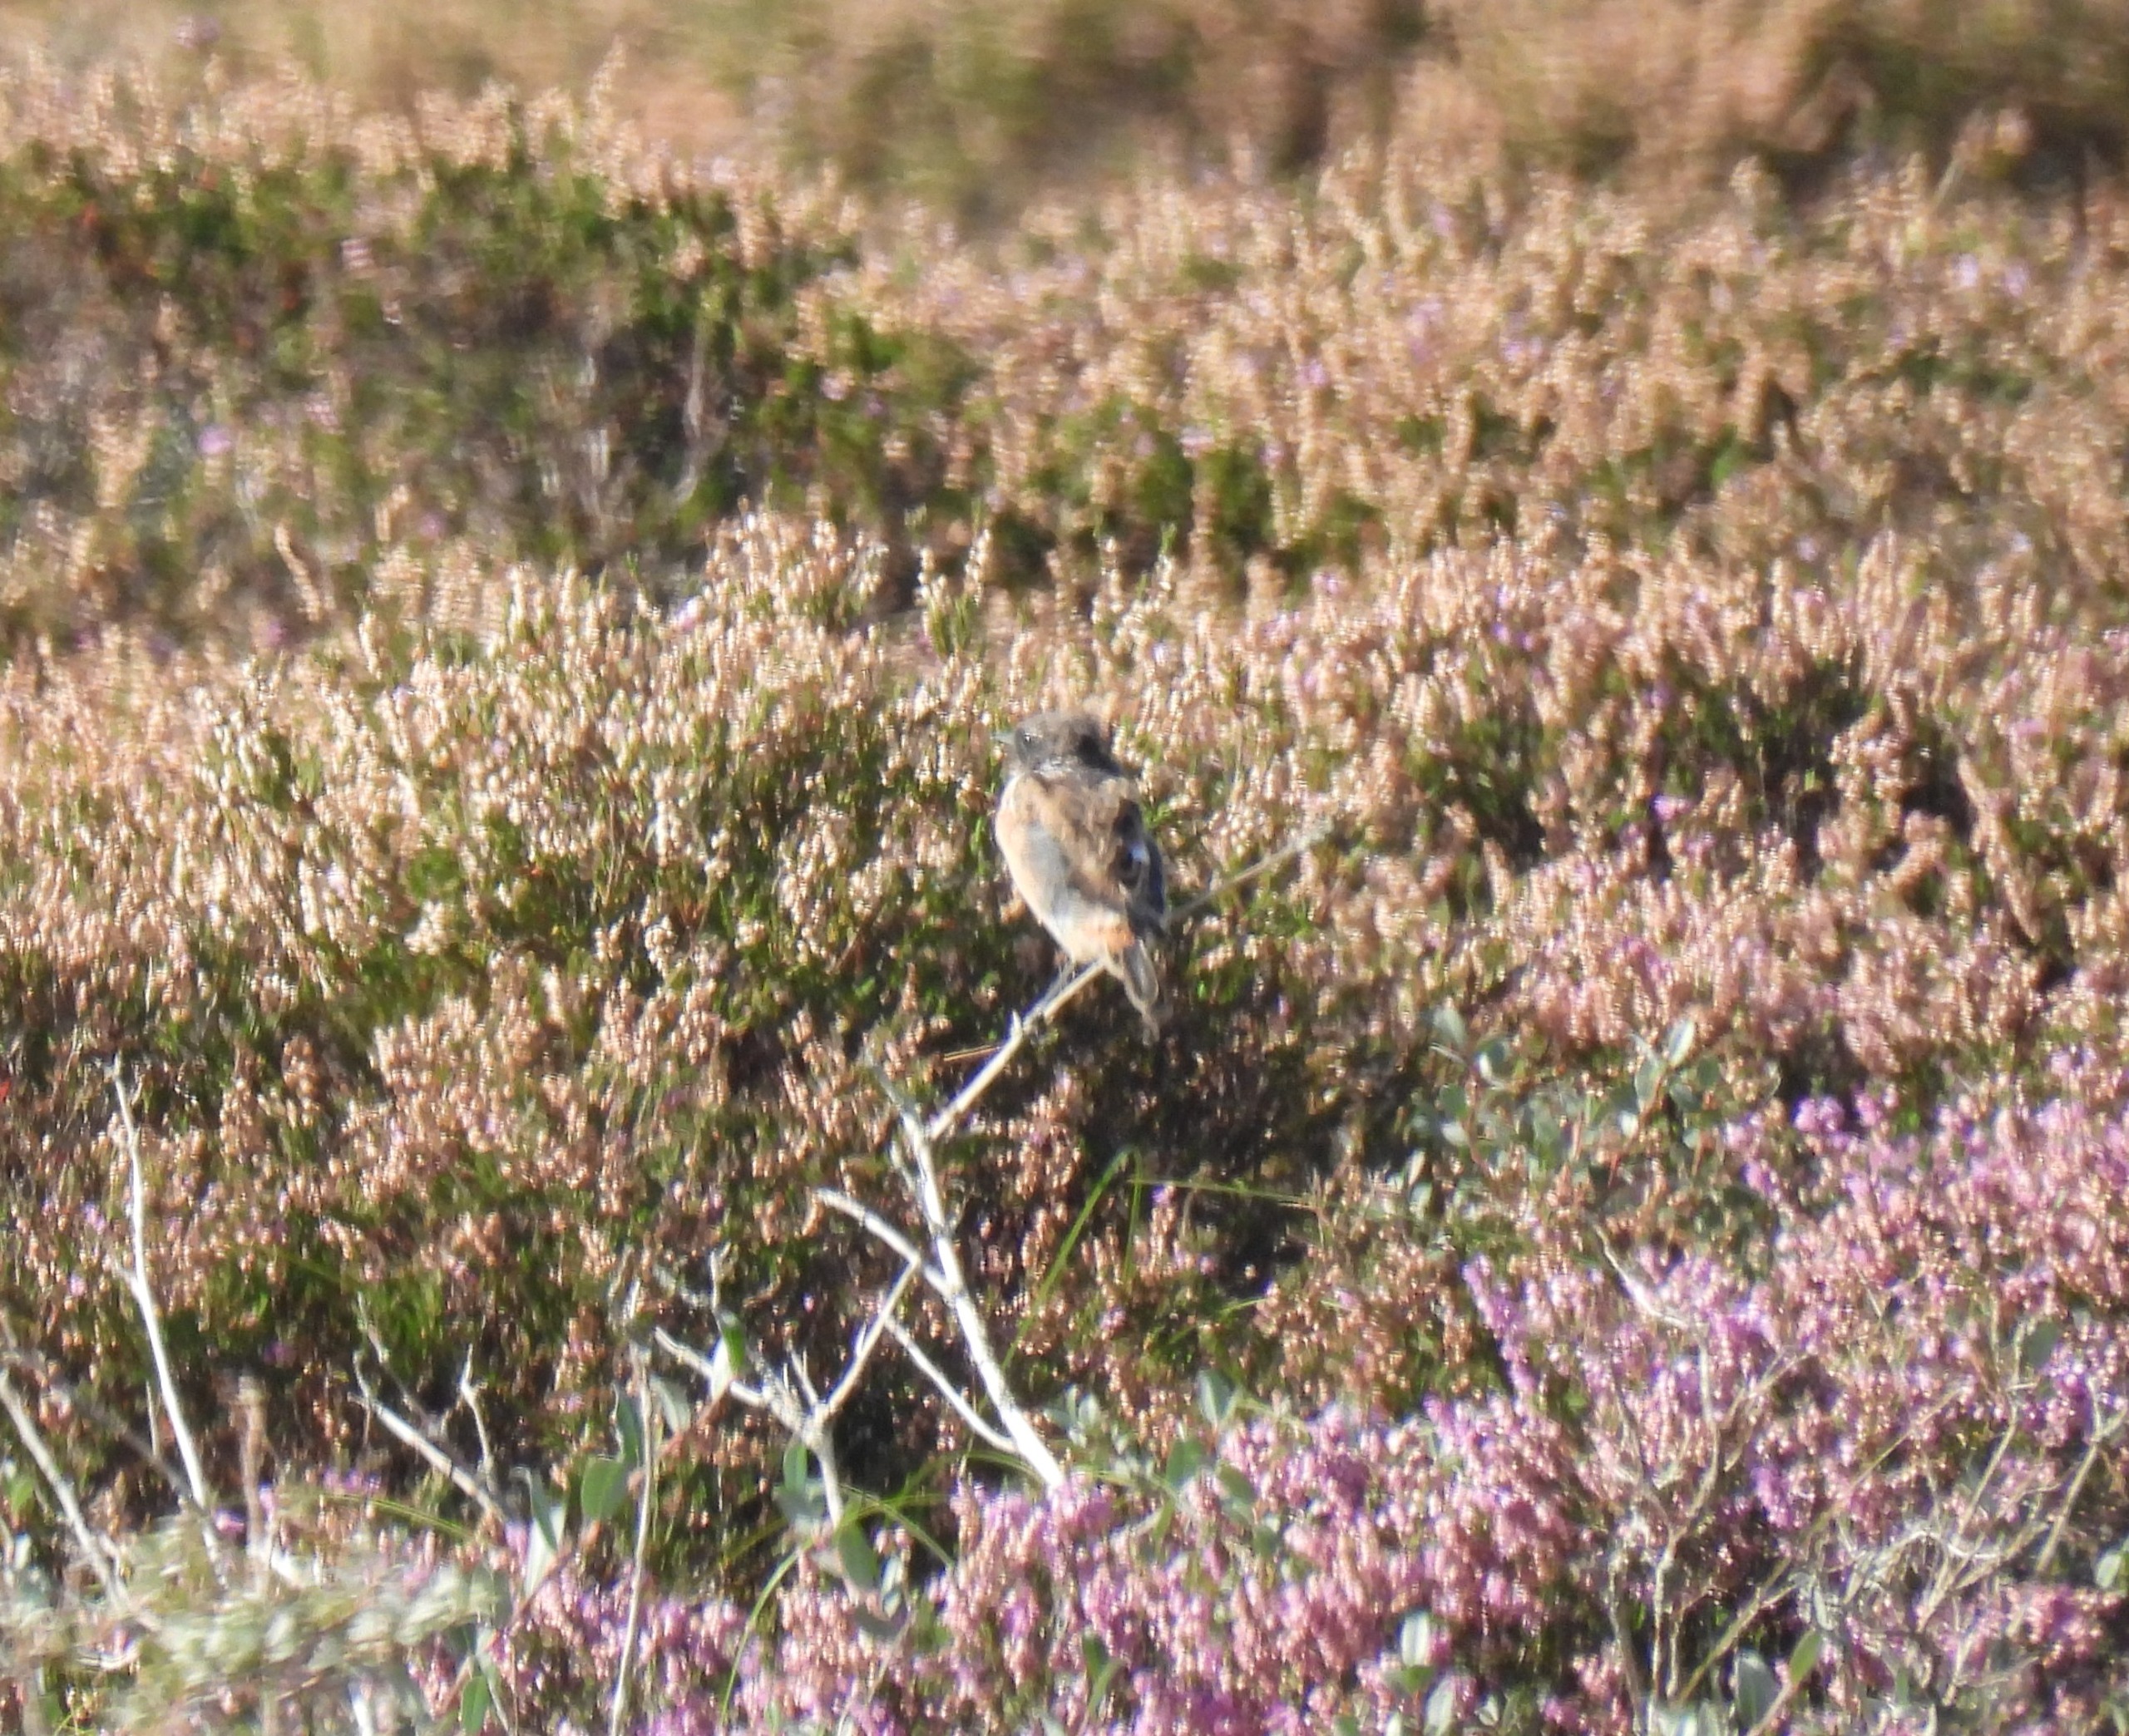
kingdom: Animalia
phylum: Chordata
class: Aves
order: Passeriformes
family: Muscicapidae
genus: Saxicola
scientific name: Saxicola rubicola
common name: Sortstrubet bynkefugl
